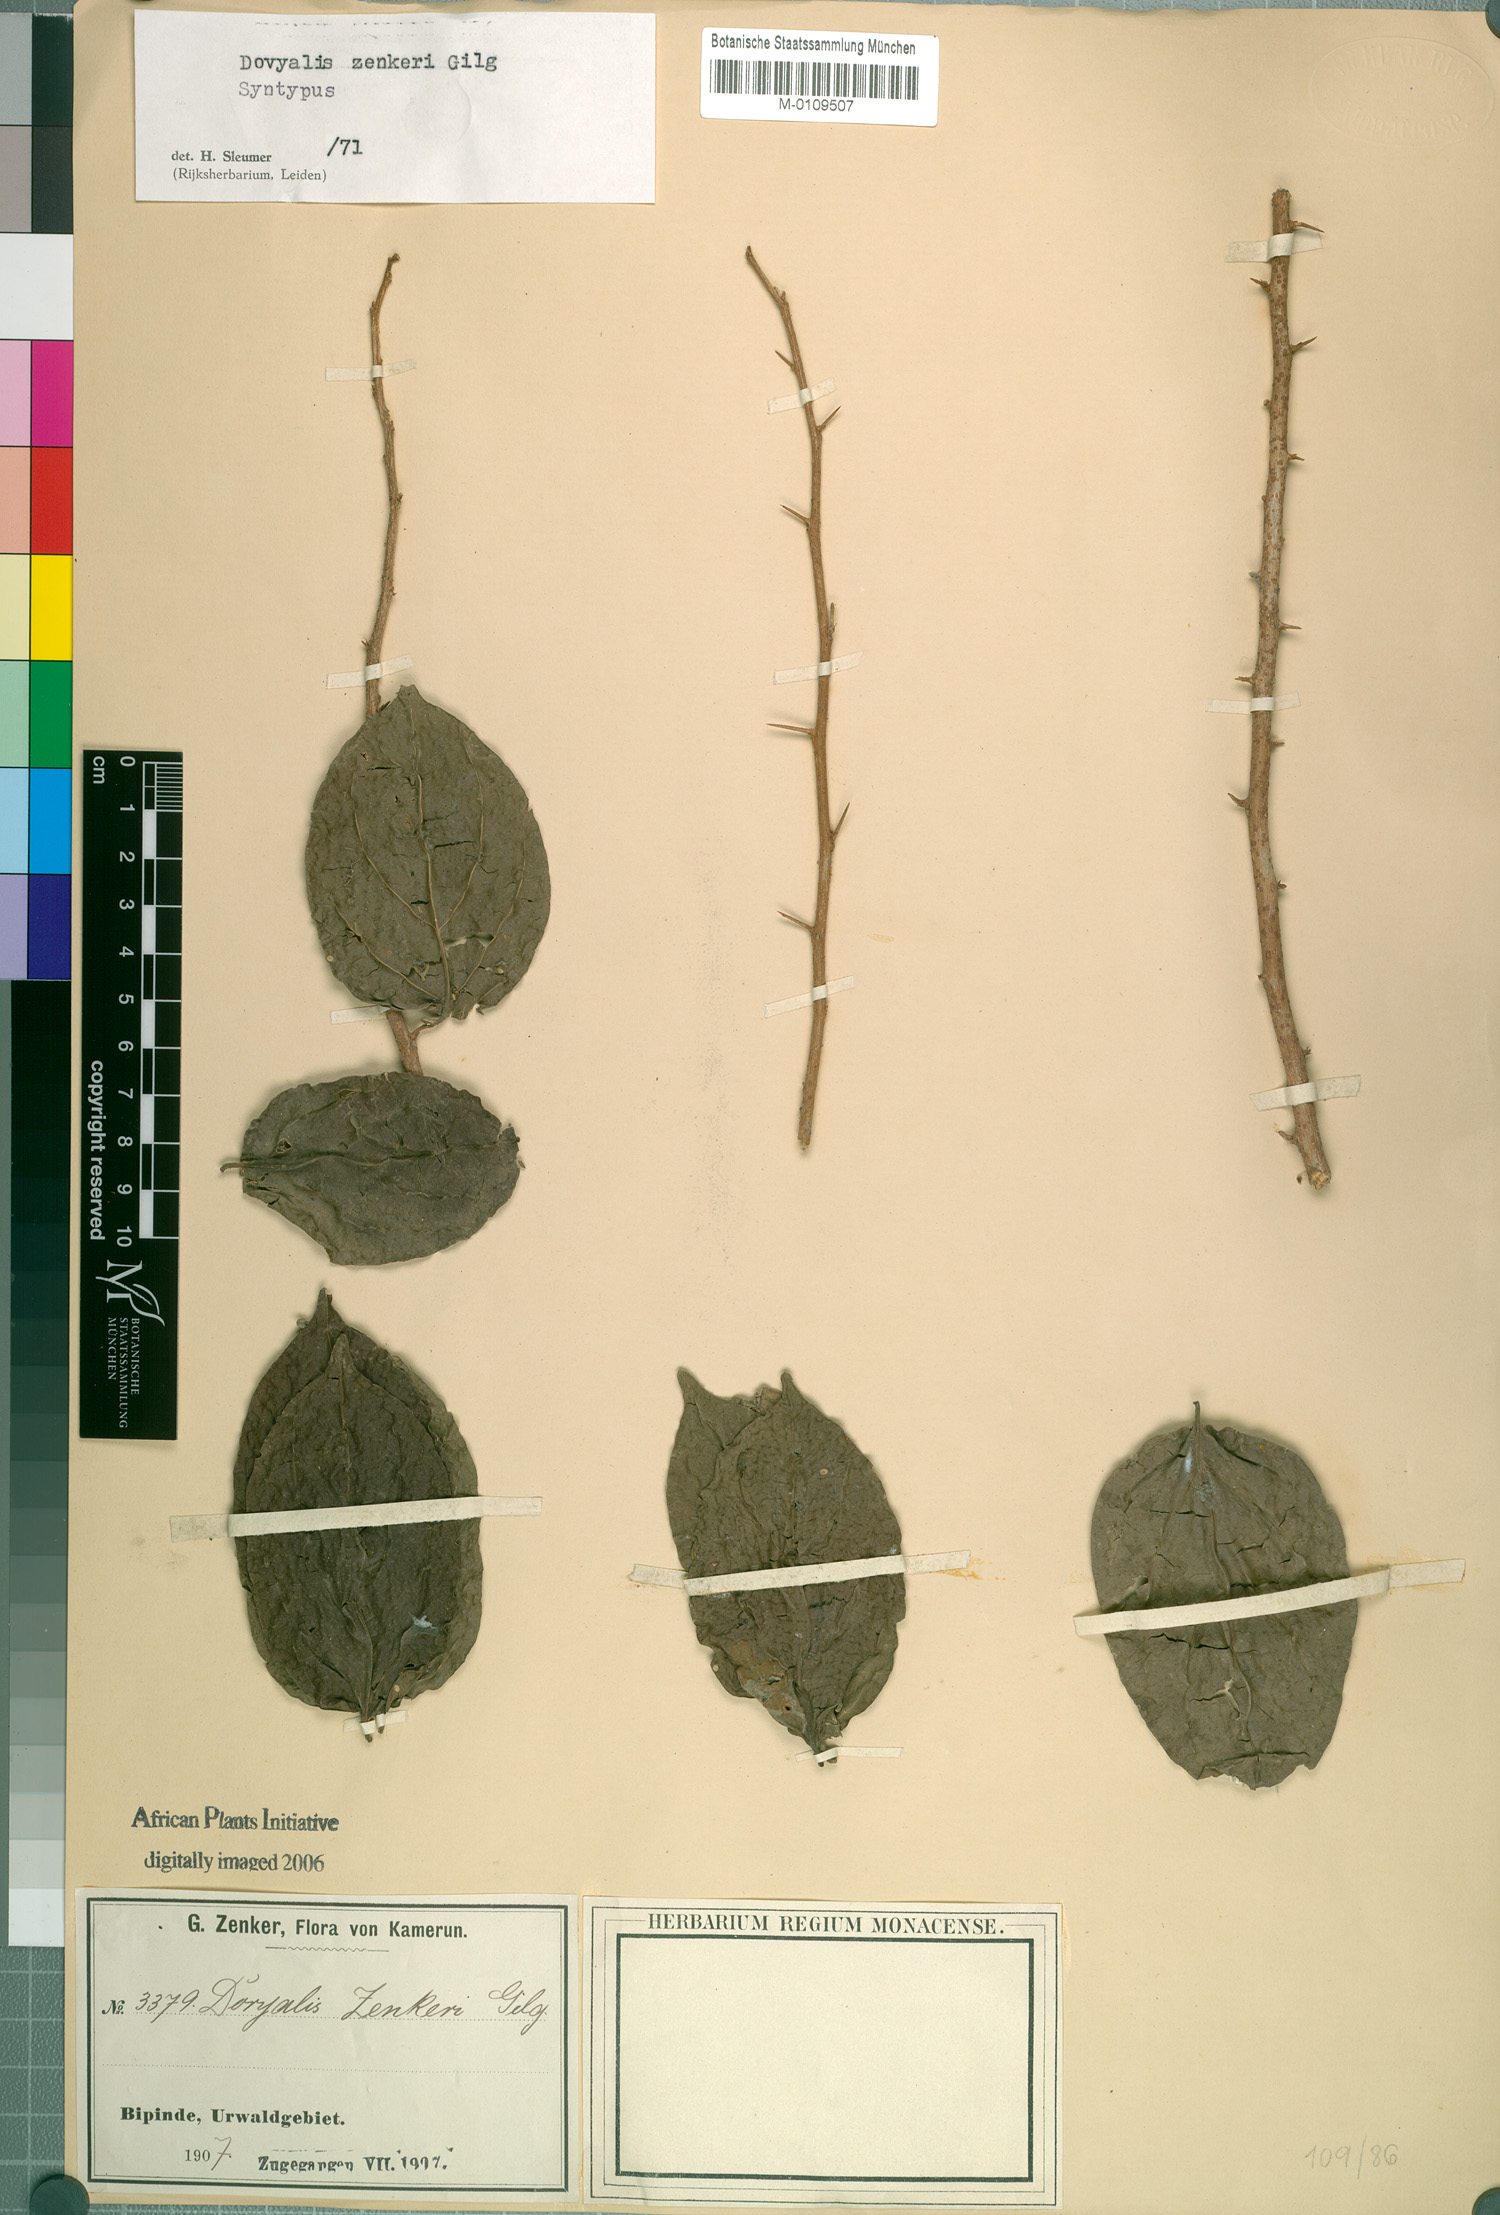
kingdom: Plantae
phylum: Tracheophyta
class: Magnoliopsida
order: Malpighiales
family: Salicaceae
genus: Dovyalis
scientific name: Dovyalis zenkeri
